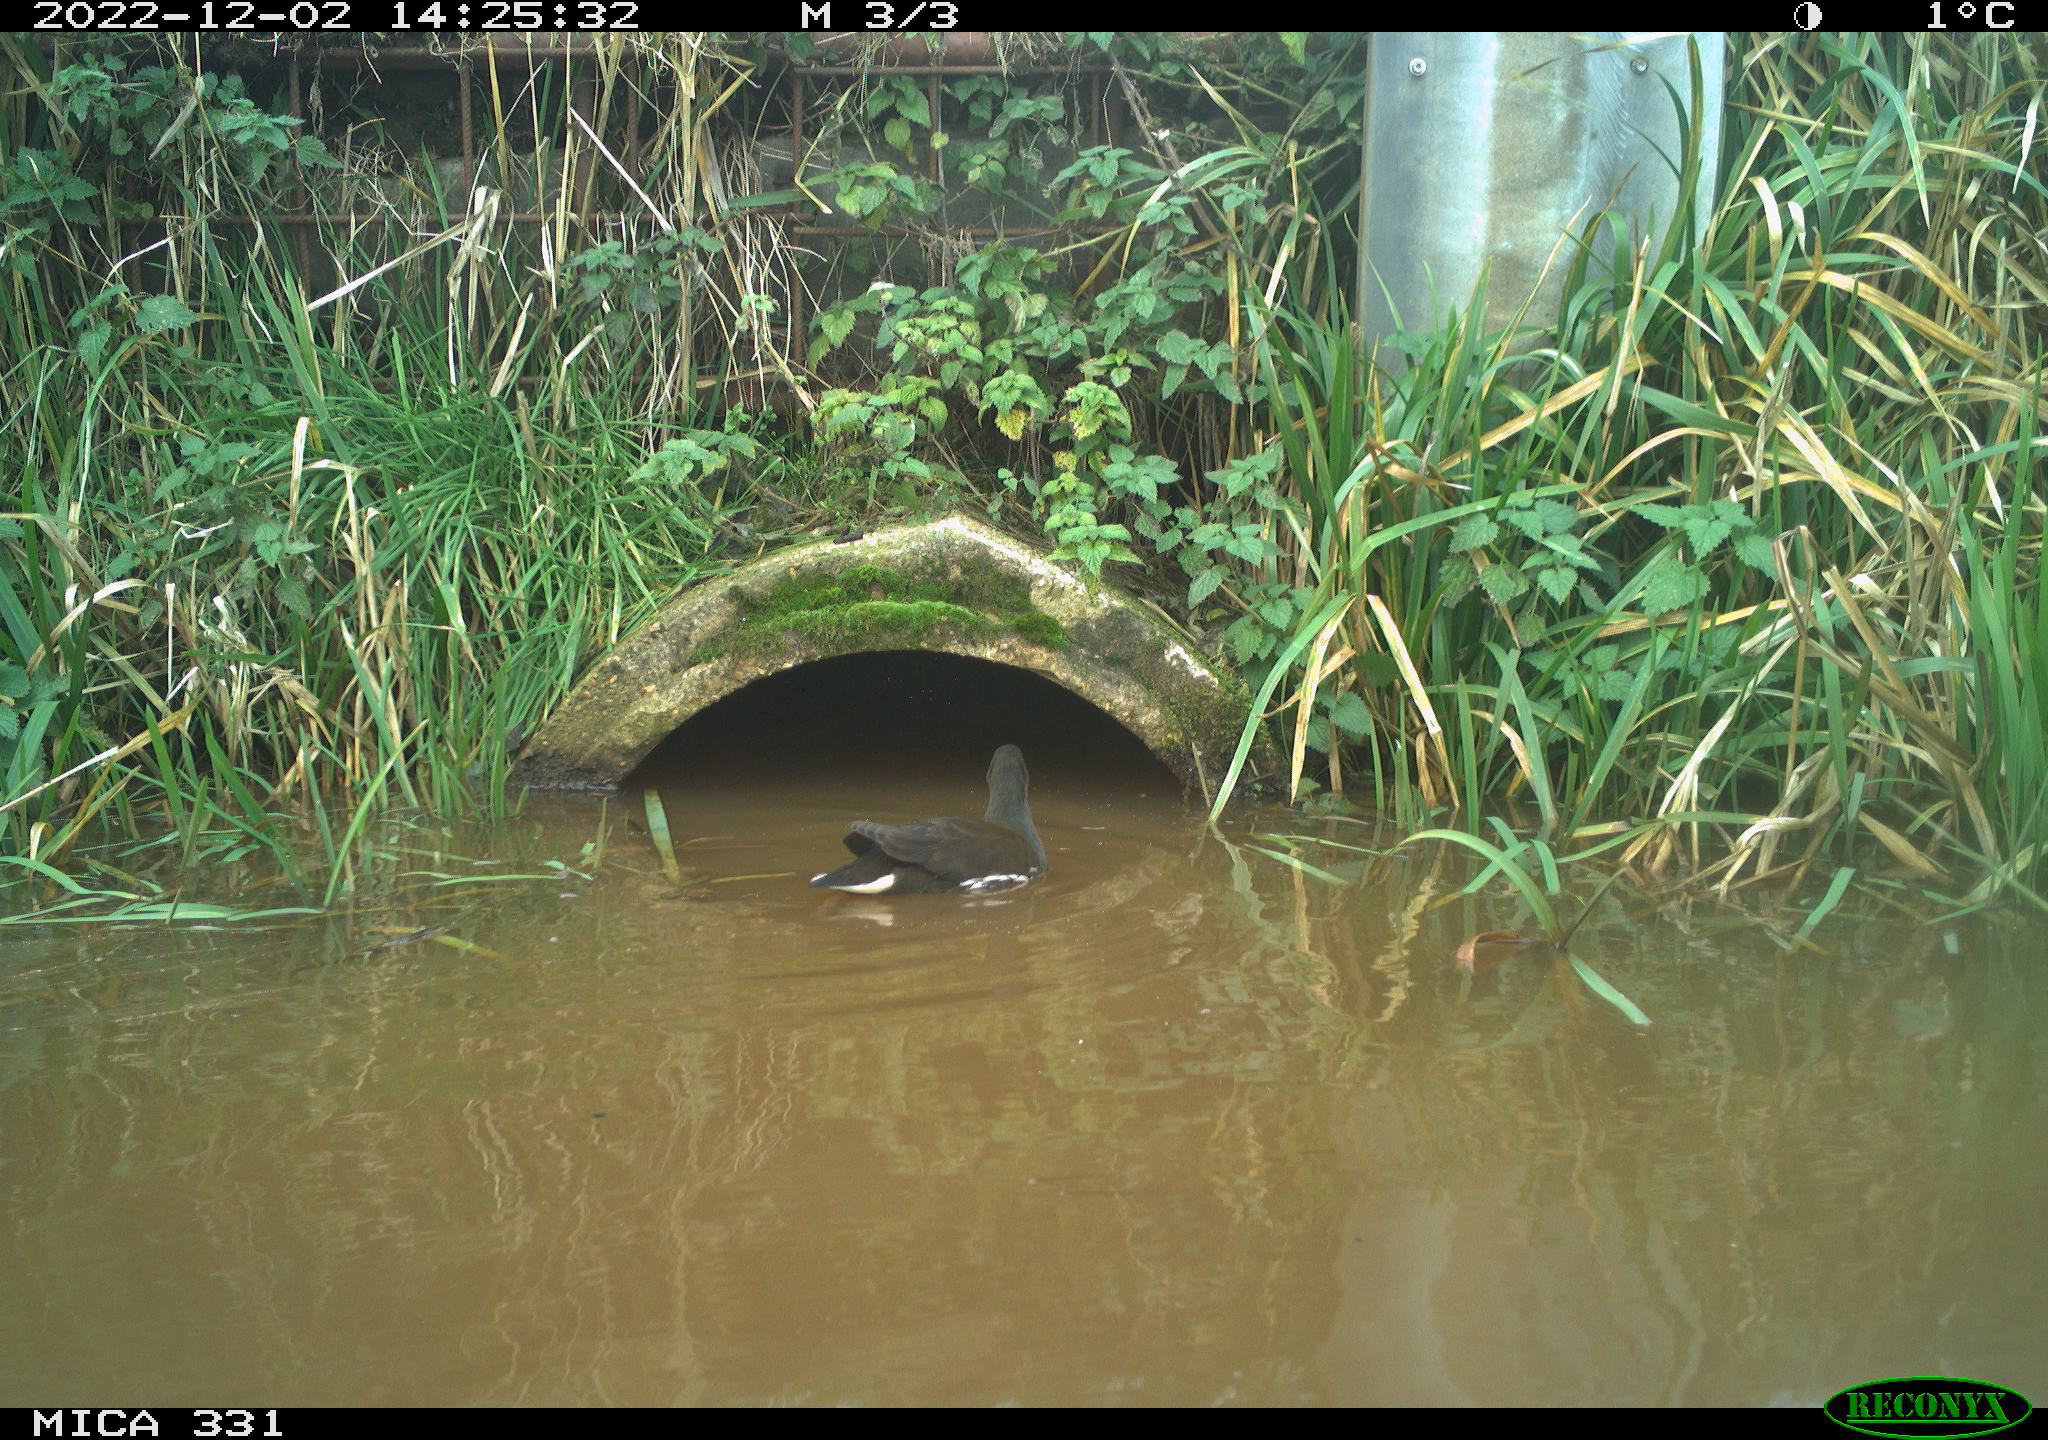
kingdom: Animalia
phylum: Chordata
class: Aves
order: Gruiformes
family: Rallidae
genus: Gallinula
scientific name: Gallinula chloropus
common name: Common moorhen
